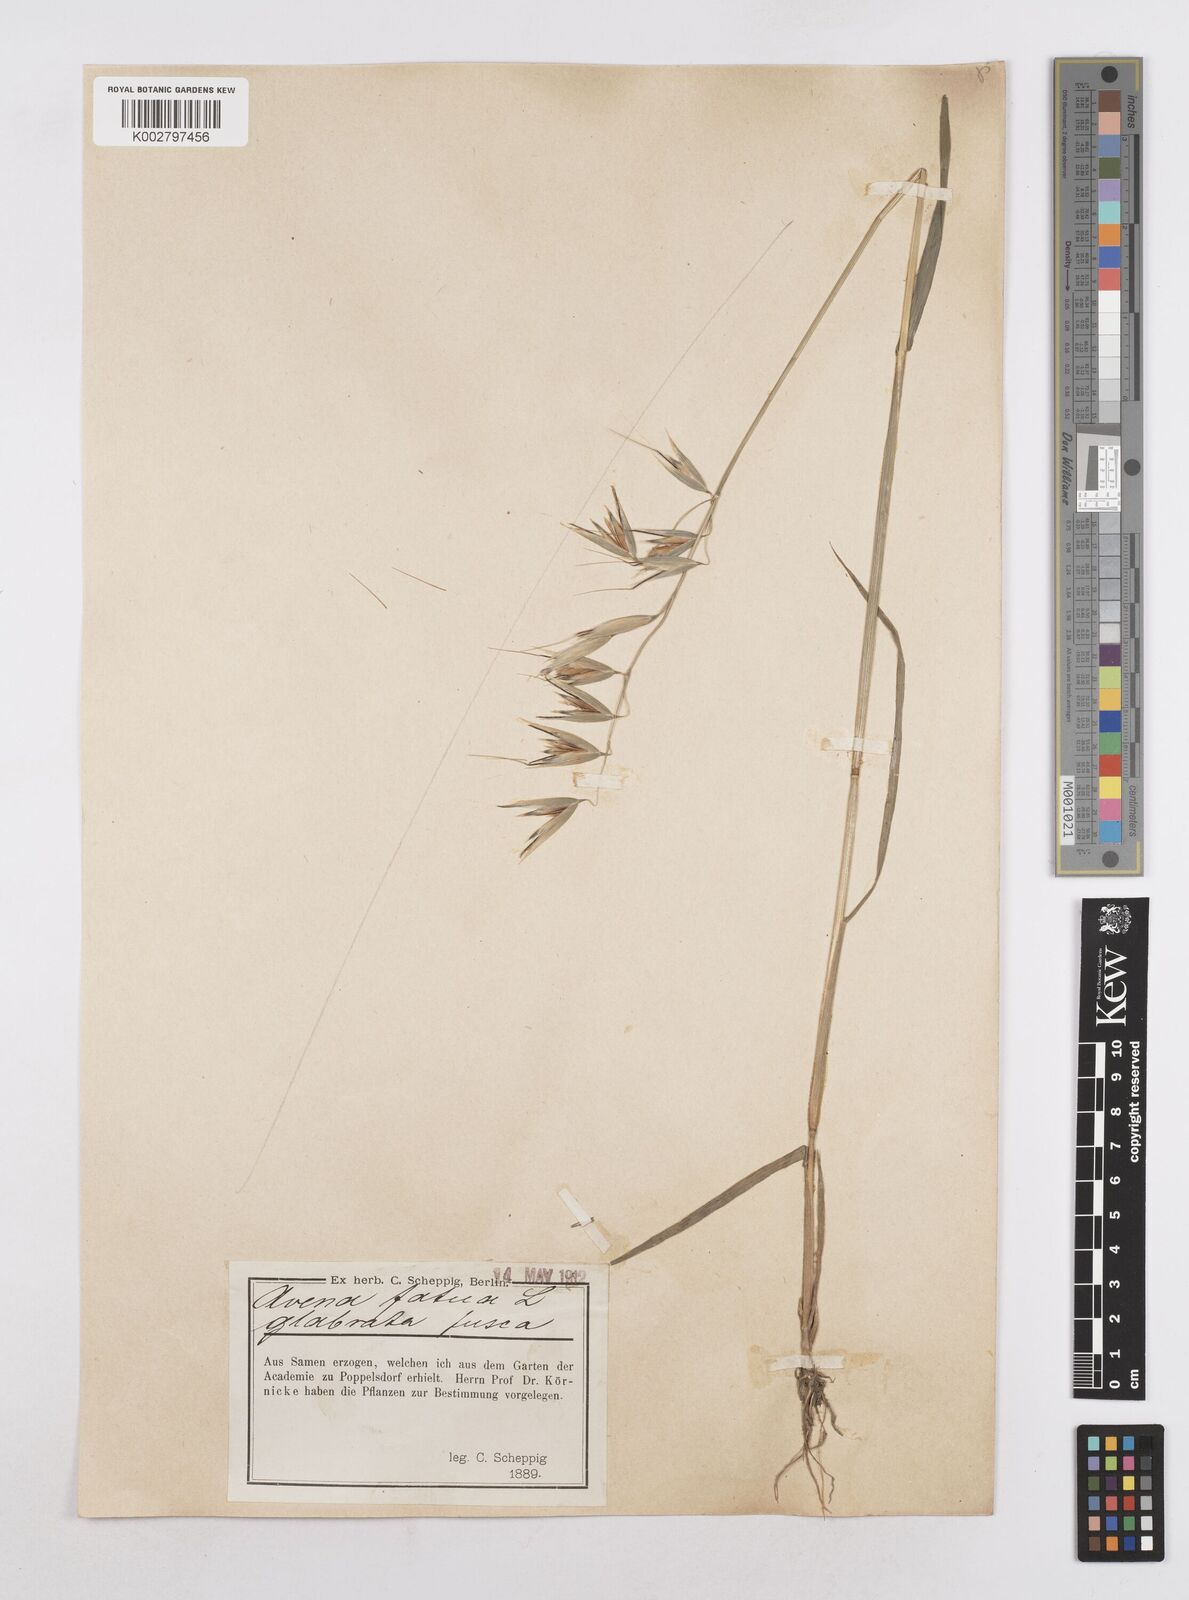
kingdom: Plantae
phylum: Tracheophyta
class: Liliopsida
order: Poales
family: Poaceae
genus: Avena
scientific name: Avena fatua
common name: Wild oat
